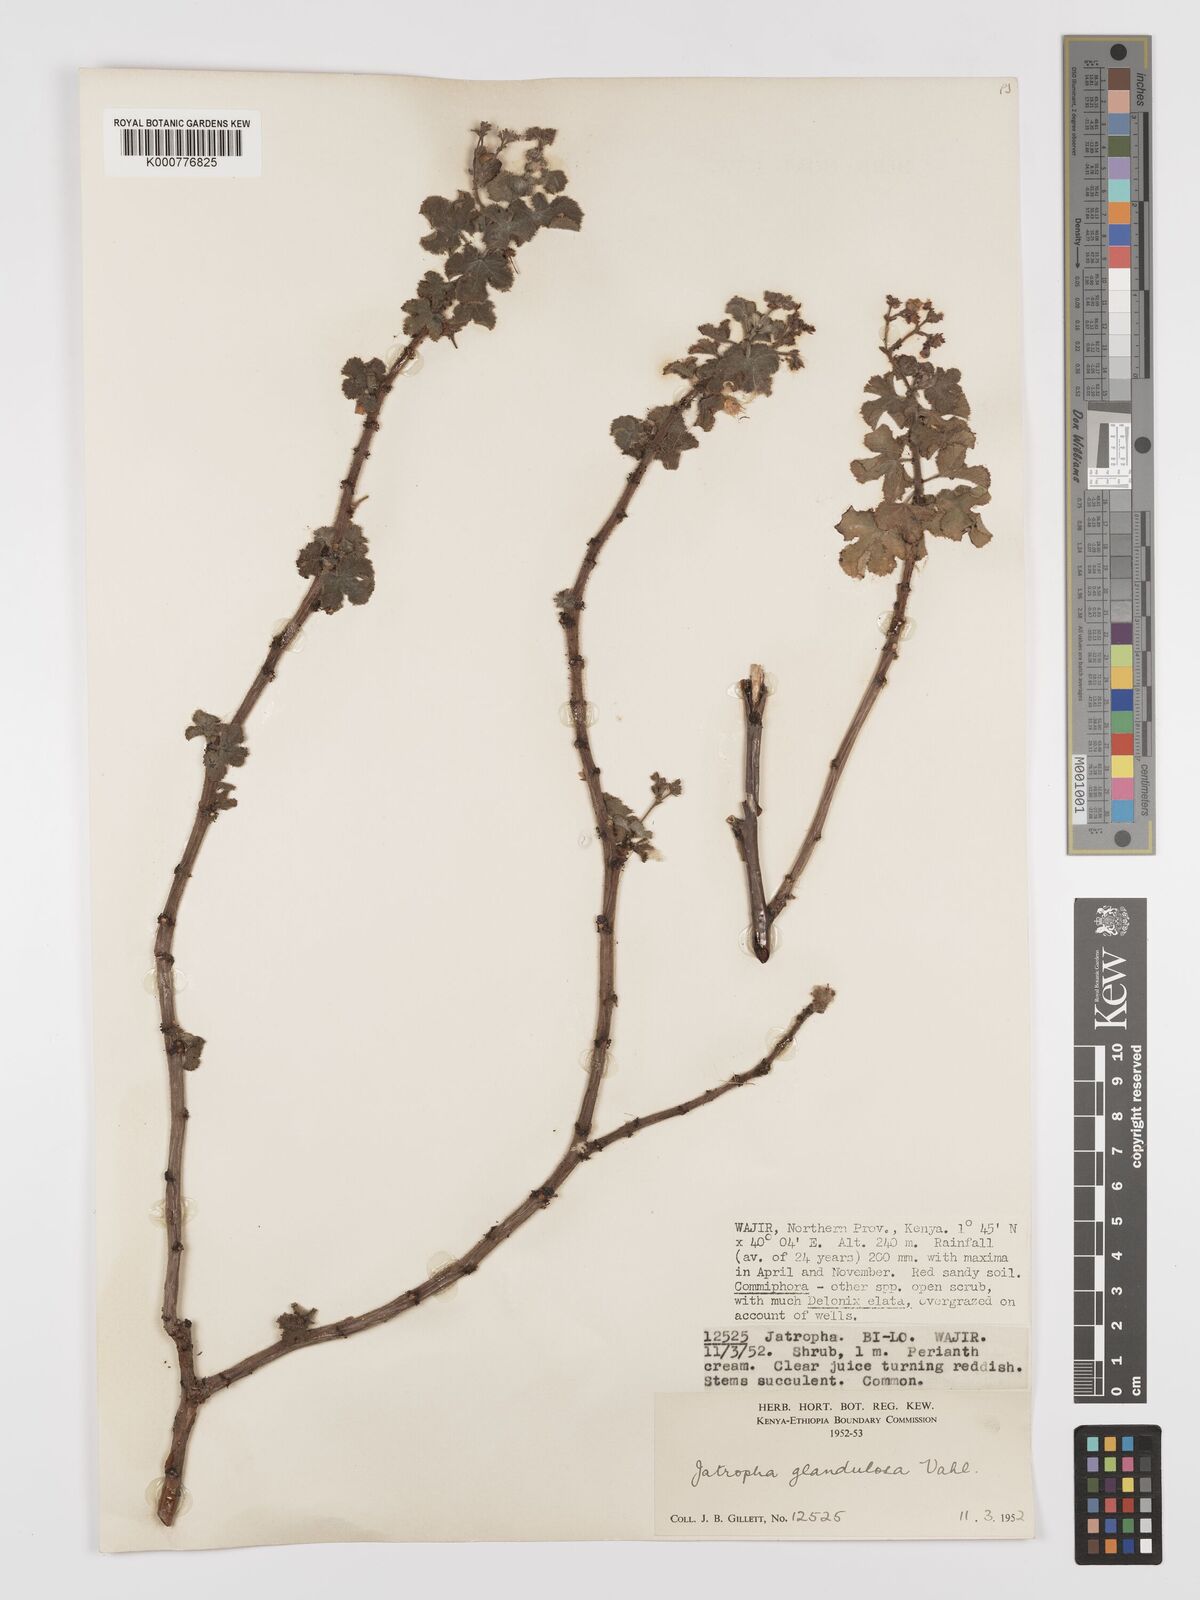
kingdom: Plantae
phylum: Tracheophyta
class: Magnoliopsida
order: Malpighiales
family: Euphorbiaceae
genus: Jatropha
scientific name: Jatropha pelargoniifolia
